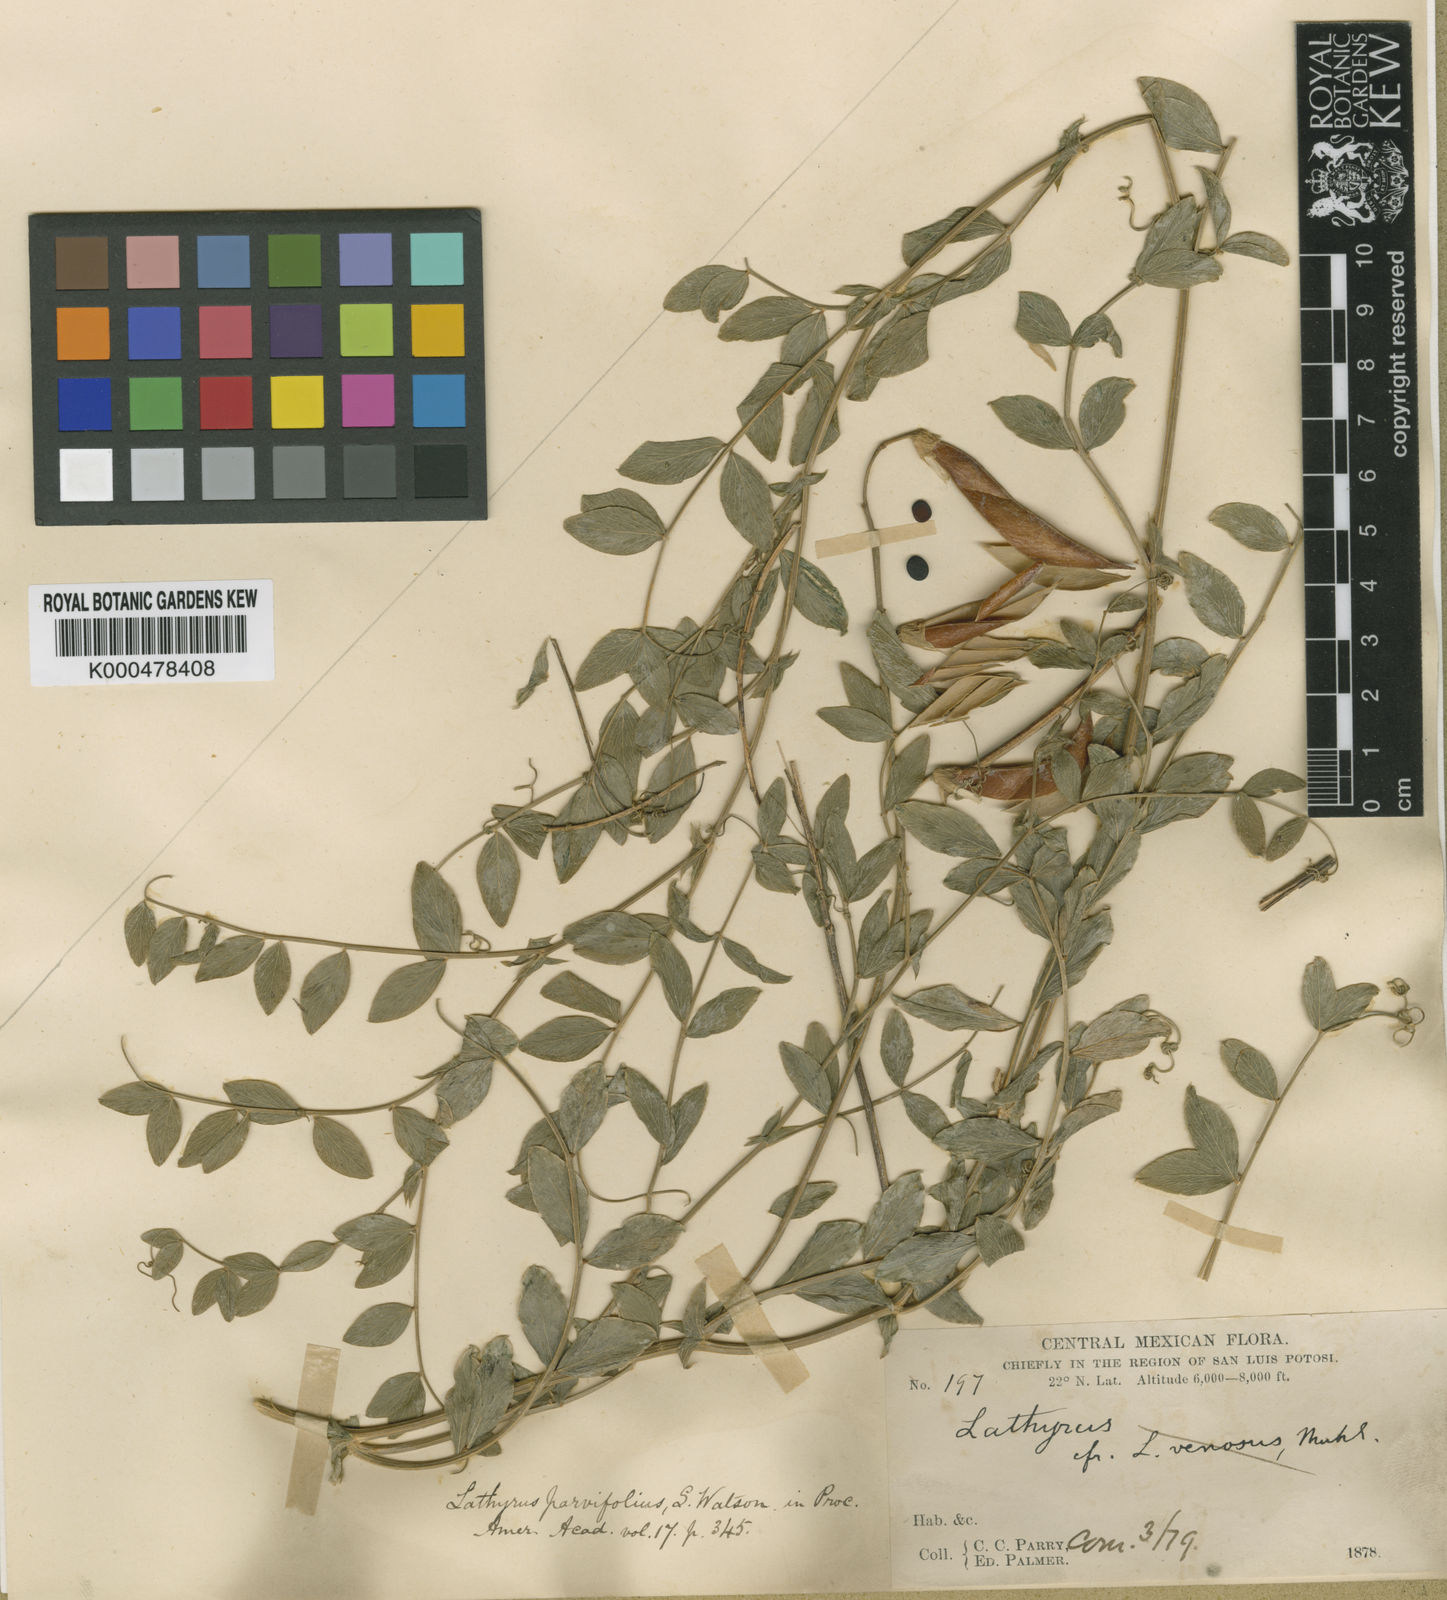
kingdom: Plantae
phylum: Tracheophyta
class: Magnoliopsida
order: Fabales
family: Fabaceae
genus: Lathyrus
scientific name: Lathyrus speciosus
